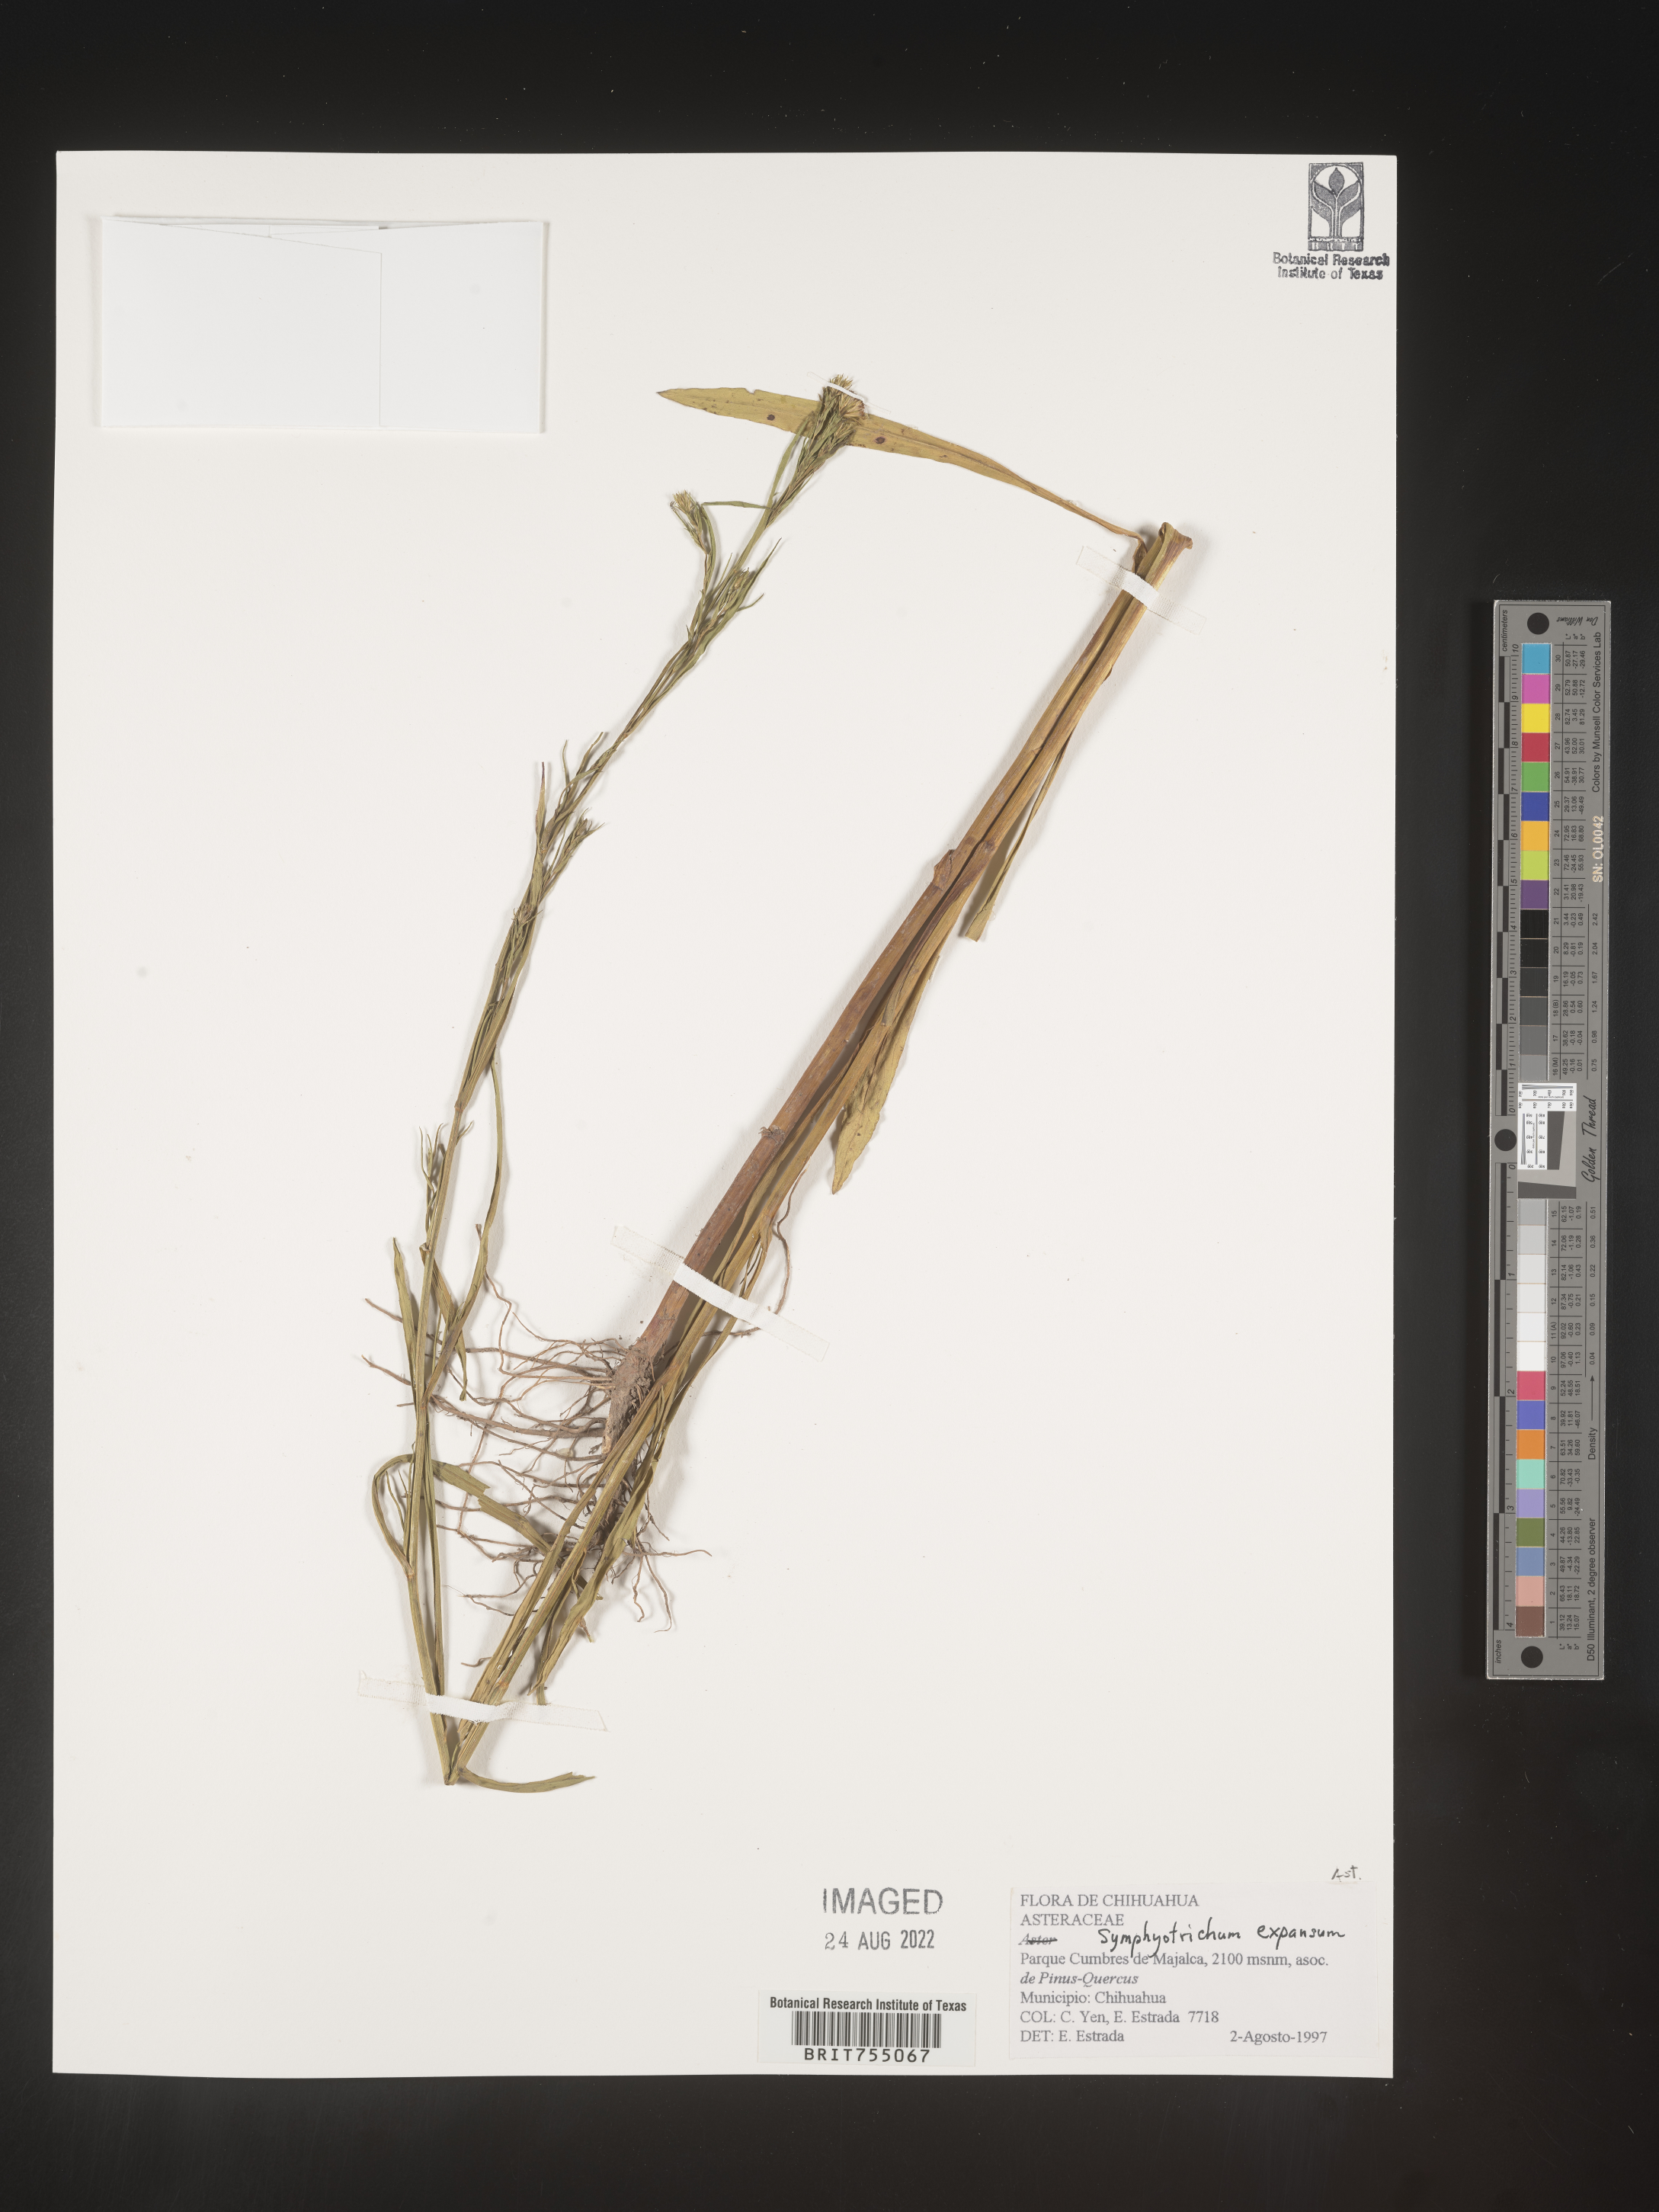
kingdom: Plantae
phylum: Tracheophyta
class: Magnoliopsida
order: Asterales
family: Asteraceae
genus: Symphyotrichum
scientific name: Symphyotrichum expansum
